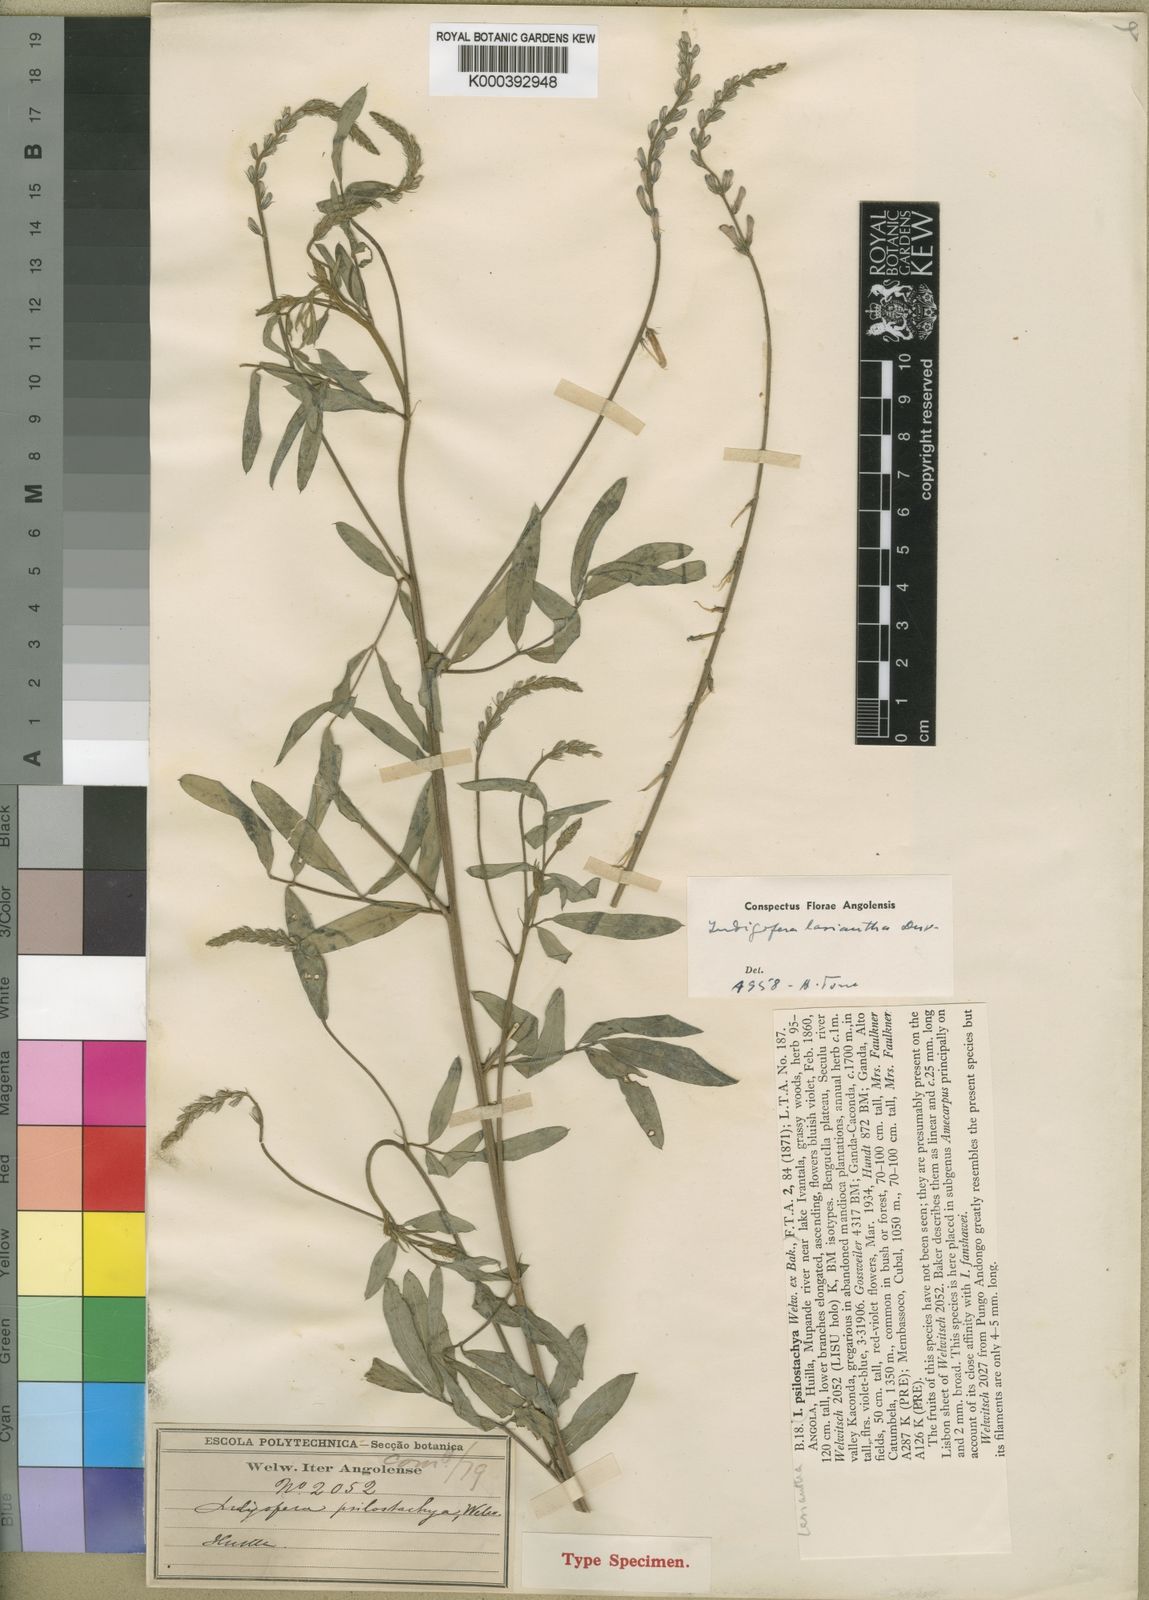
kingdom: Plantae
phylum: Tracheophyta
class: Magnoliopsida
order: Fabales
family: Fabaceae
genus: Indigofera
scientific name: Indigofera lasiantha
